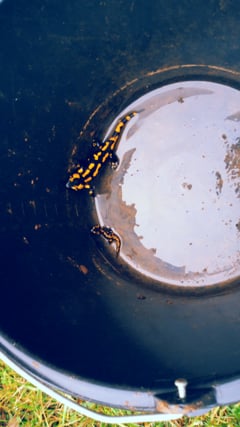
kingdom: Animalia
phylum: Chordata
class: Amphibia
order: Caudata
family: Salamandridae
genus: Salamandra
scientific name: Salamandra salamandra
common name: Fire salamander
